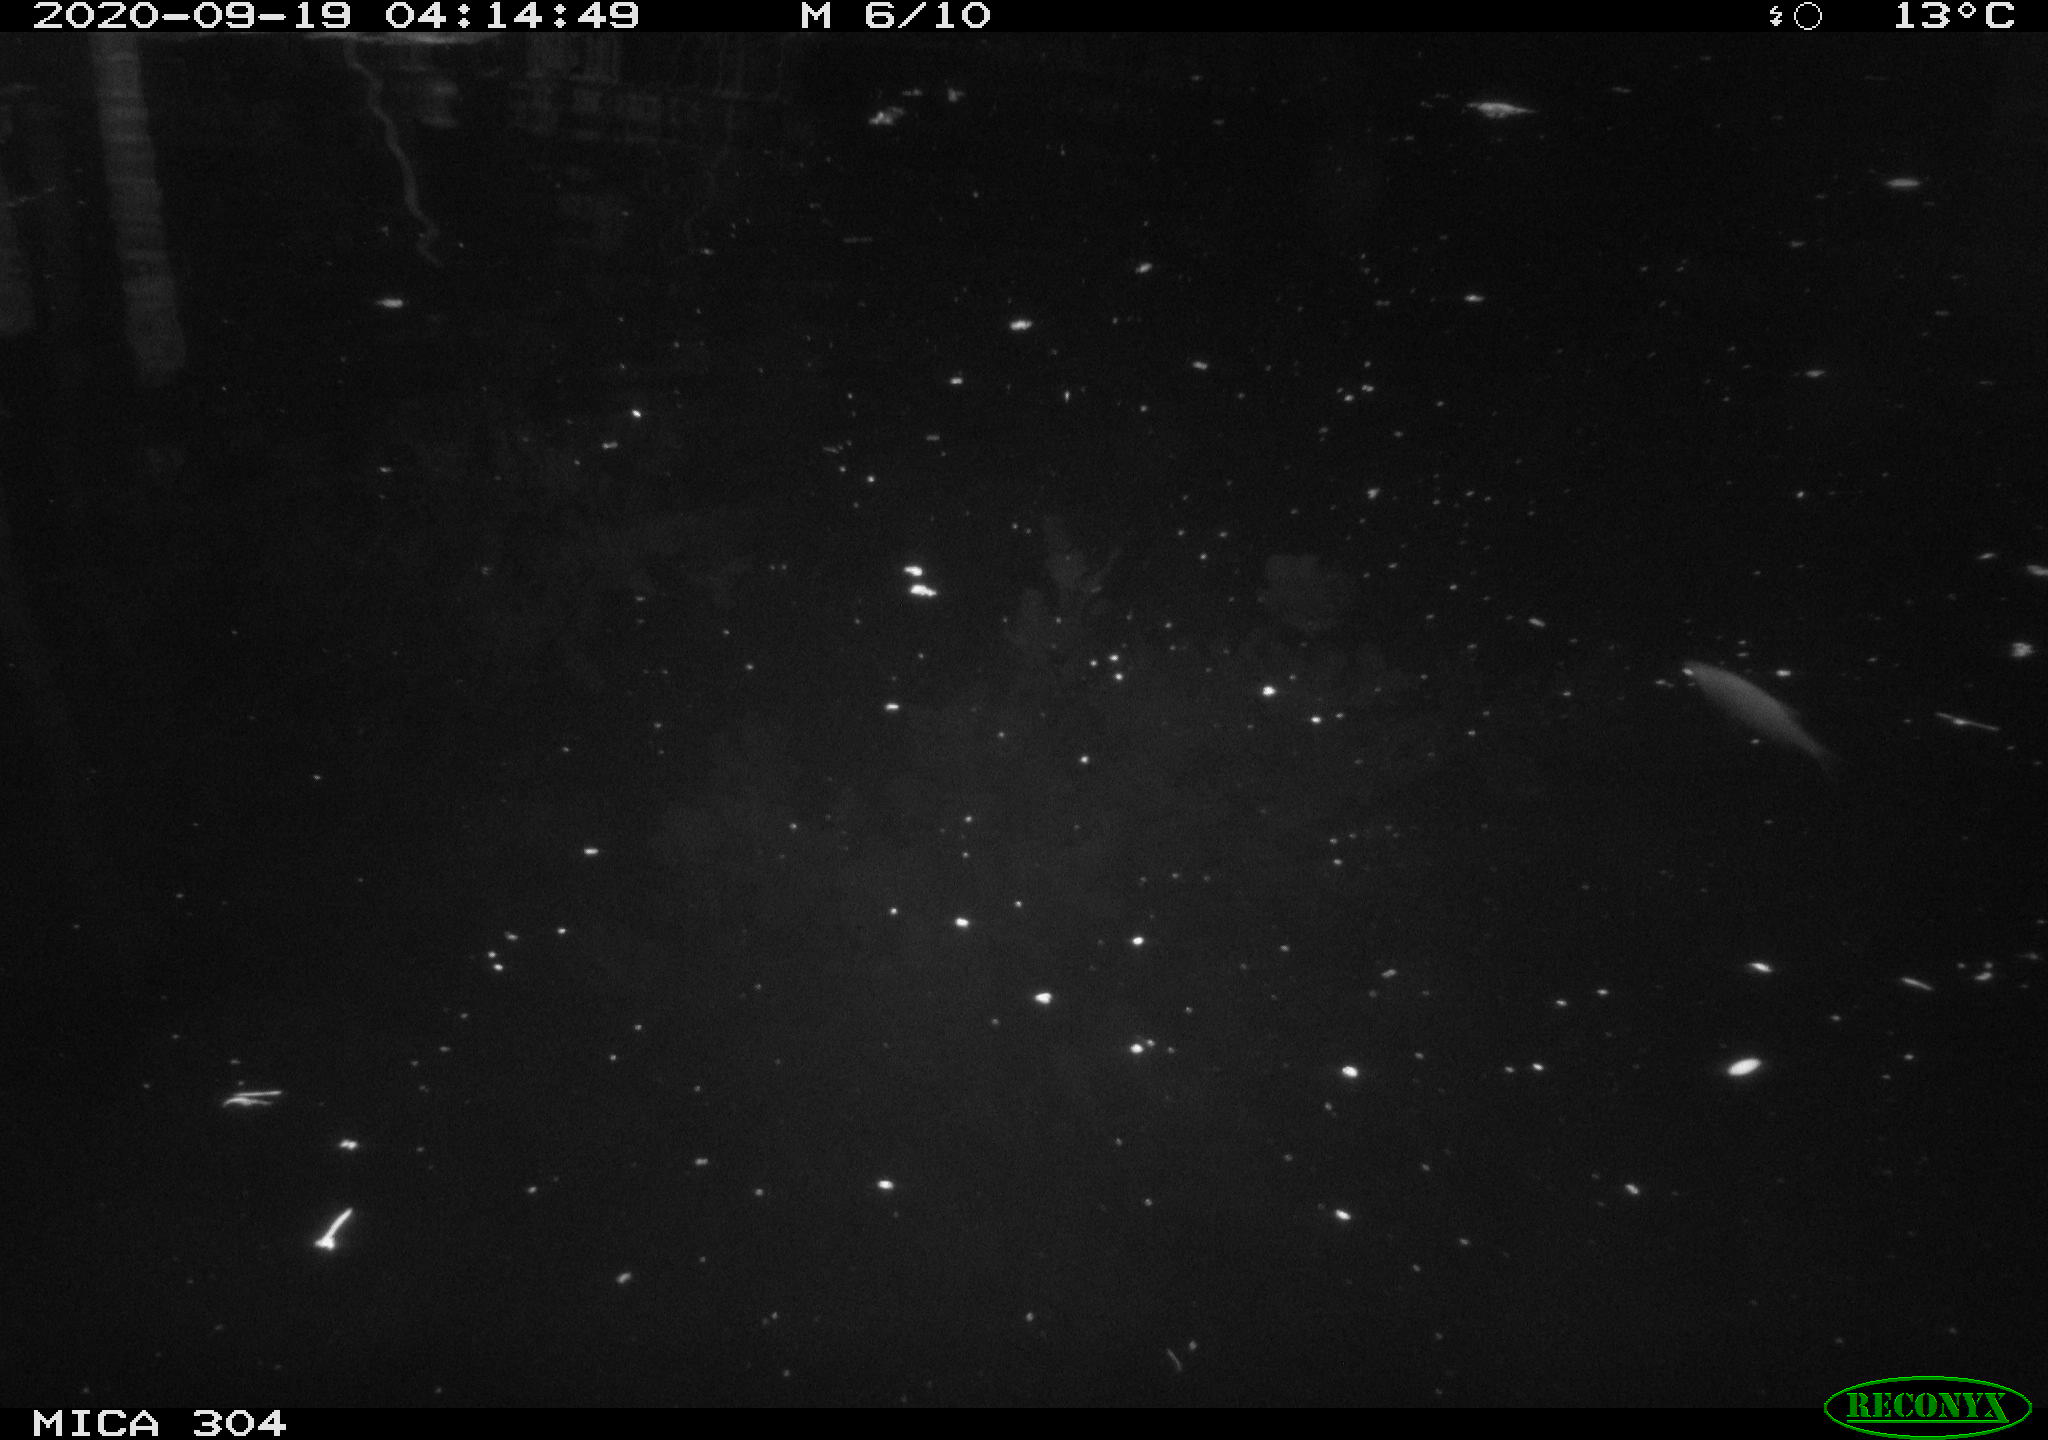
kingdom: Animalia
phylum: Chordata
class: Mammalia
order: Rodentia
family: Muridae
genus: Rattus
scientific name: Rattus norvegicus
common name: Brown rat
